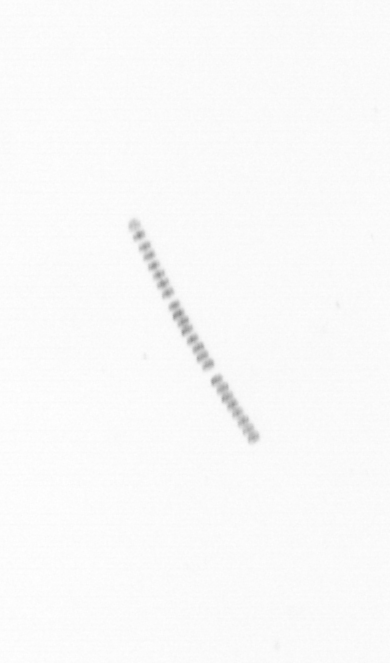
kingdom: Chromista
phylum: Ochrophyta
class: Bacillariophyceae
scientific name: Bacillariophyceae
